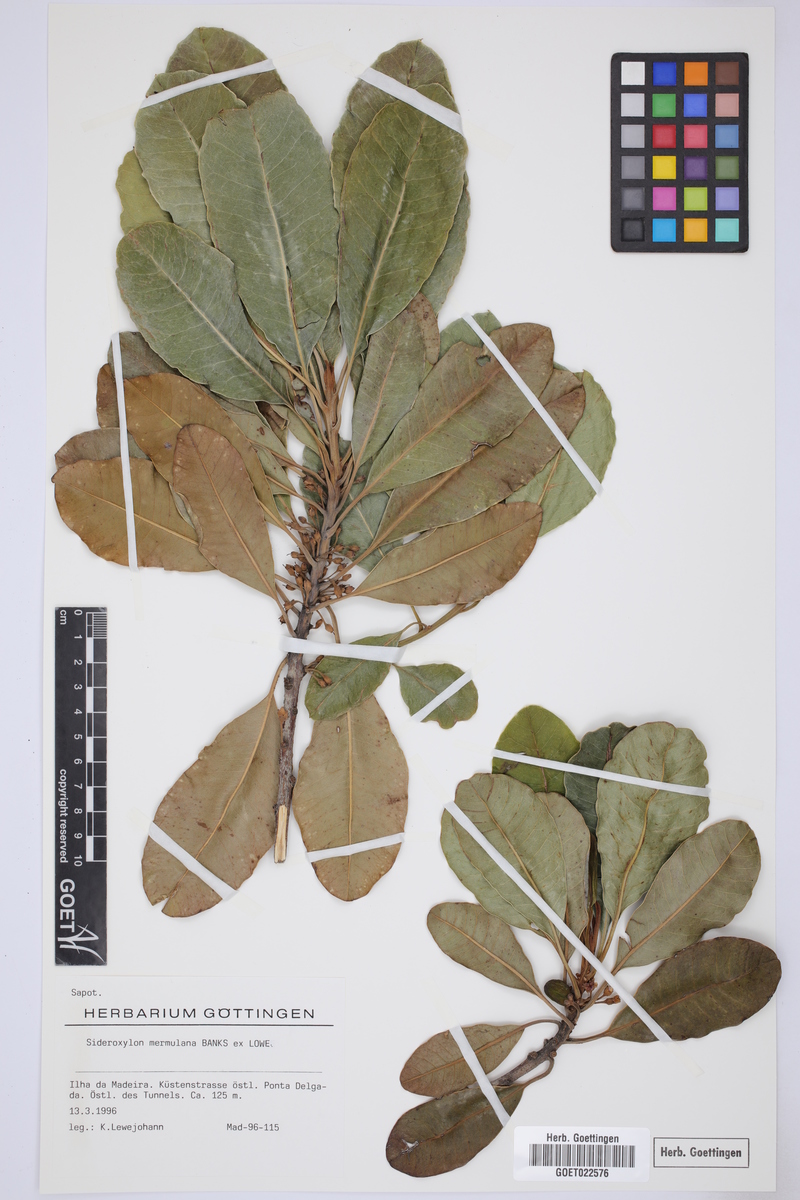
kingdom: Plantae
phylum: Tracheophyta
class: Magnoliopsida
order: Ericales
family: Sapotaceae
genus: Sideroxylon
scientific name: Sideroxylon mirmulano
